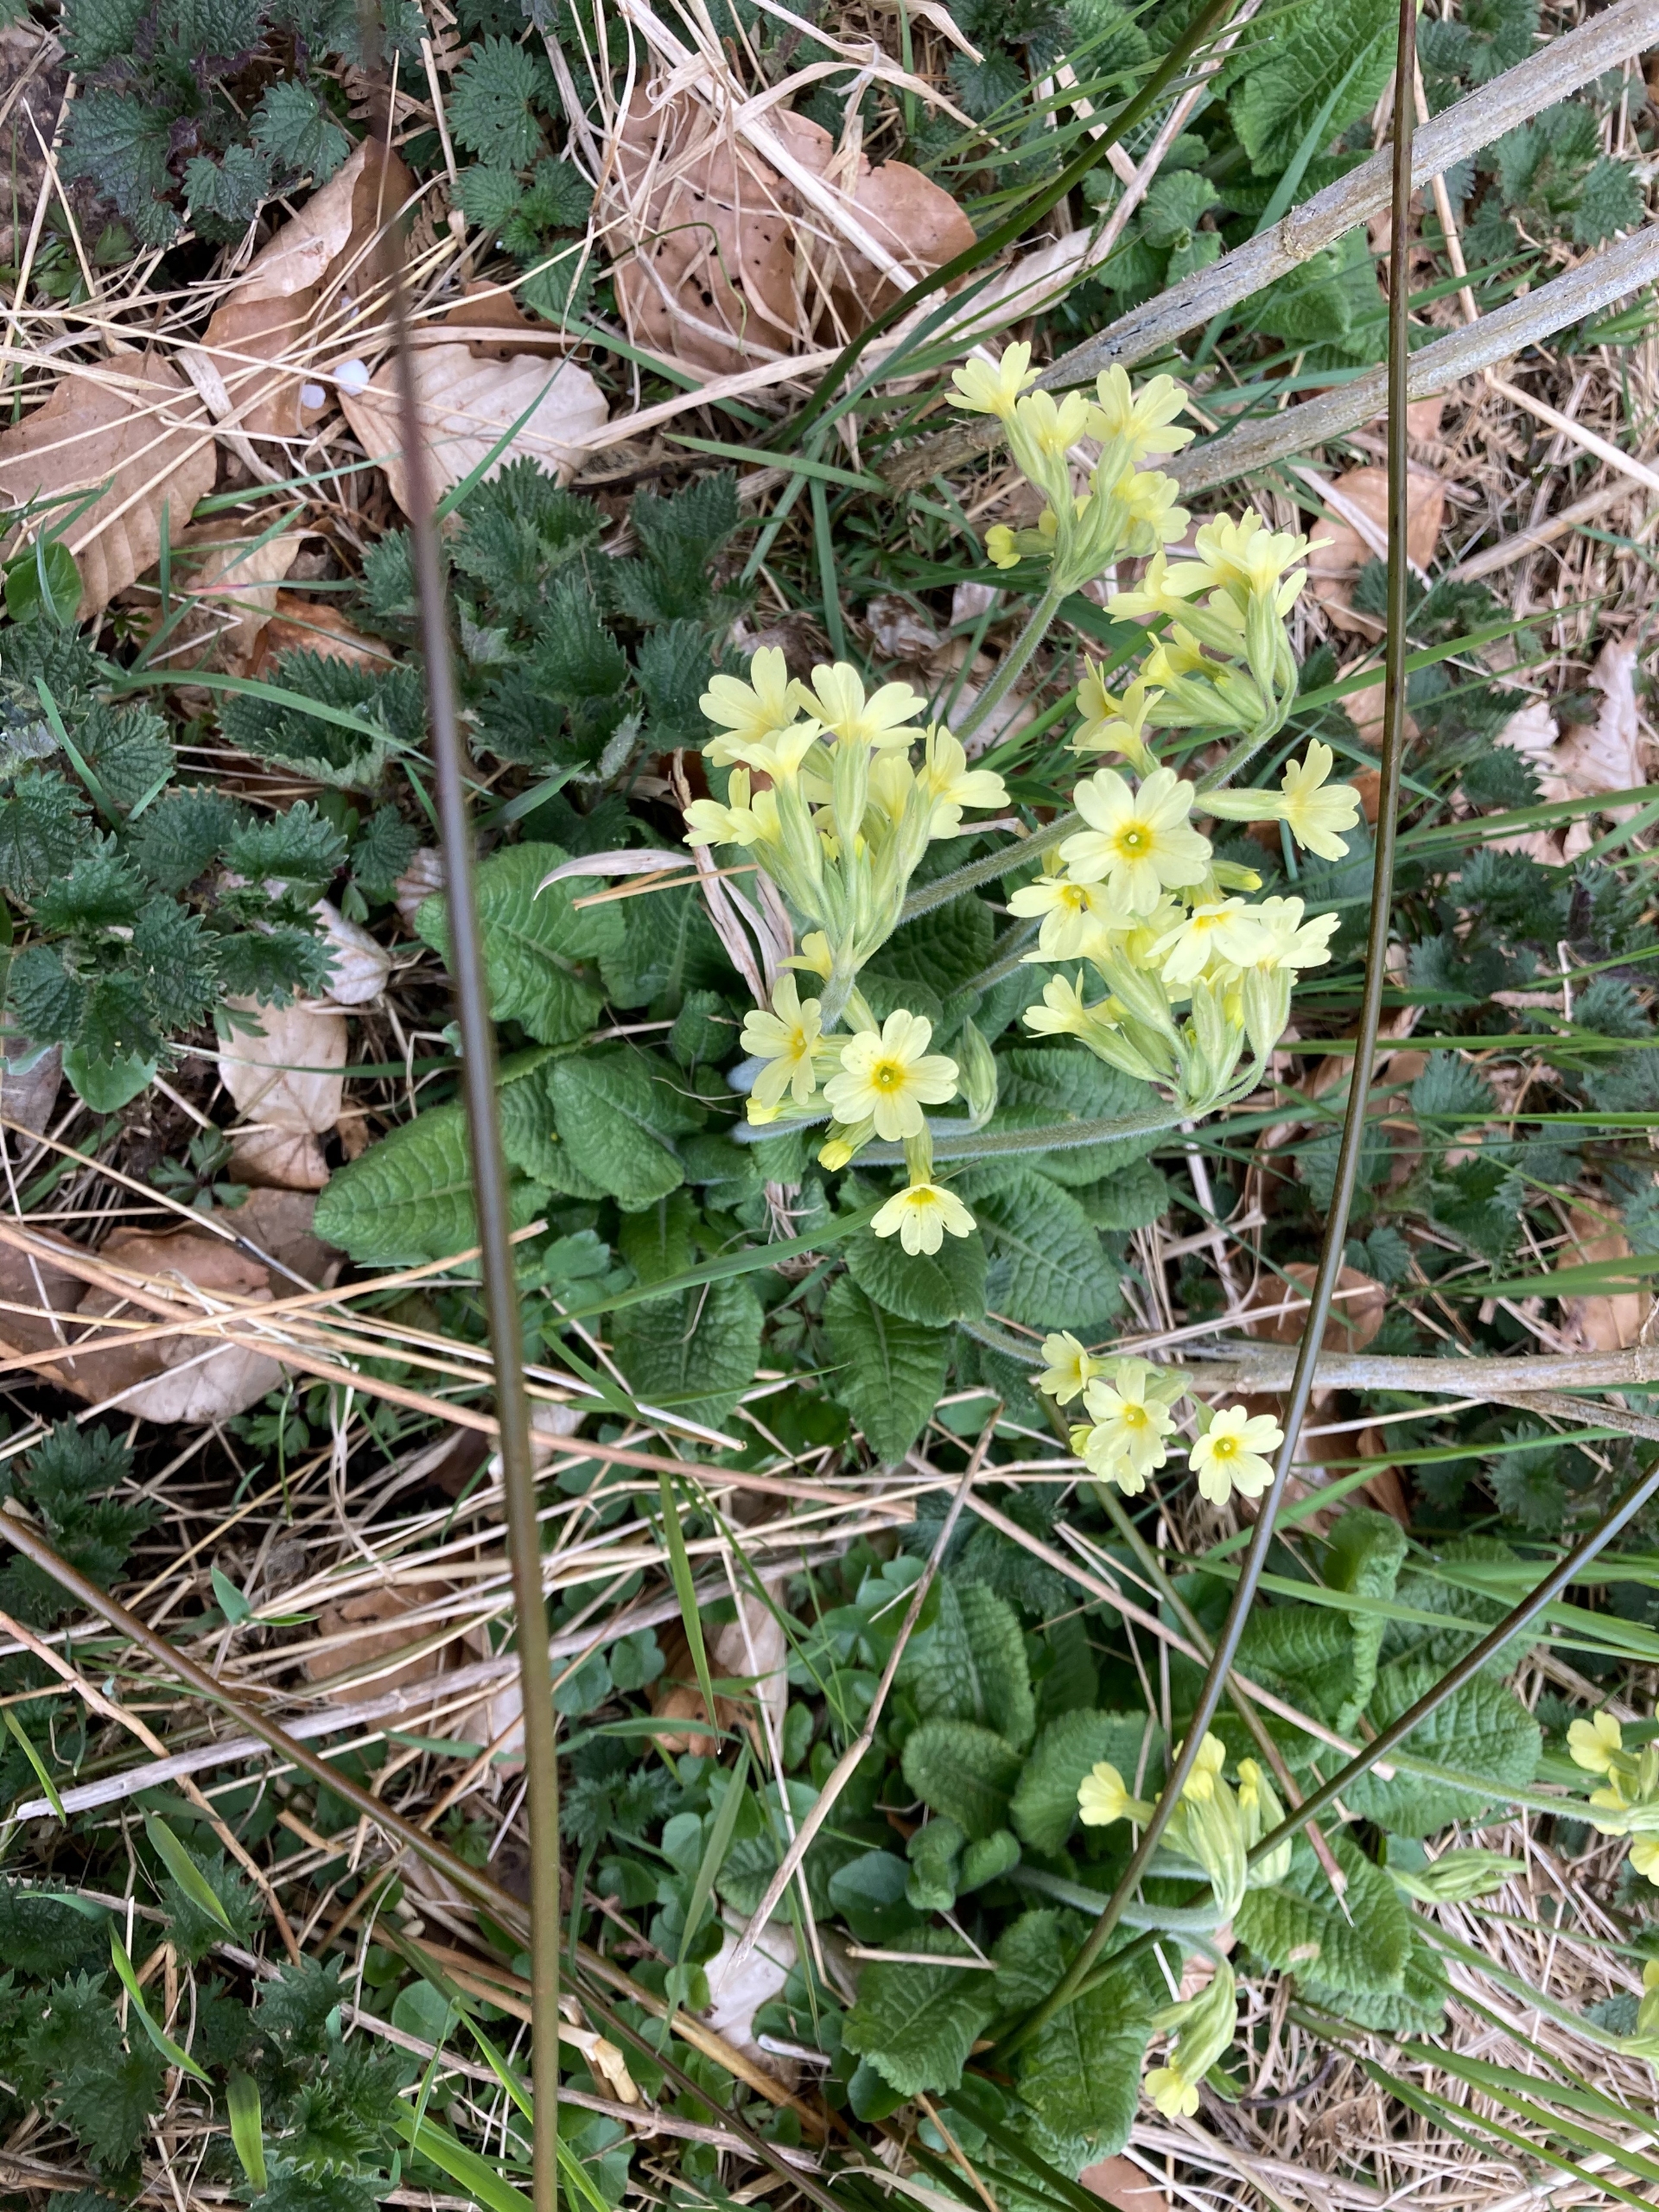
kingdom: Plantae
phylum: Tracheophyta
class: Magnoliopsida
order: Ericales
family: Primulaceae
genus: Primula
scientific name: Primula elatior
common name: Fladkravet kodriver
